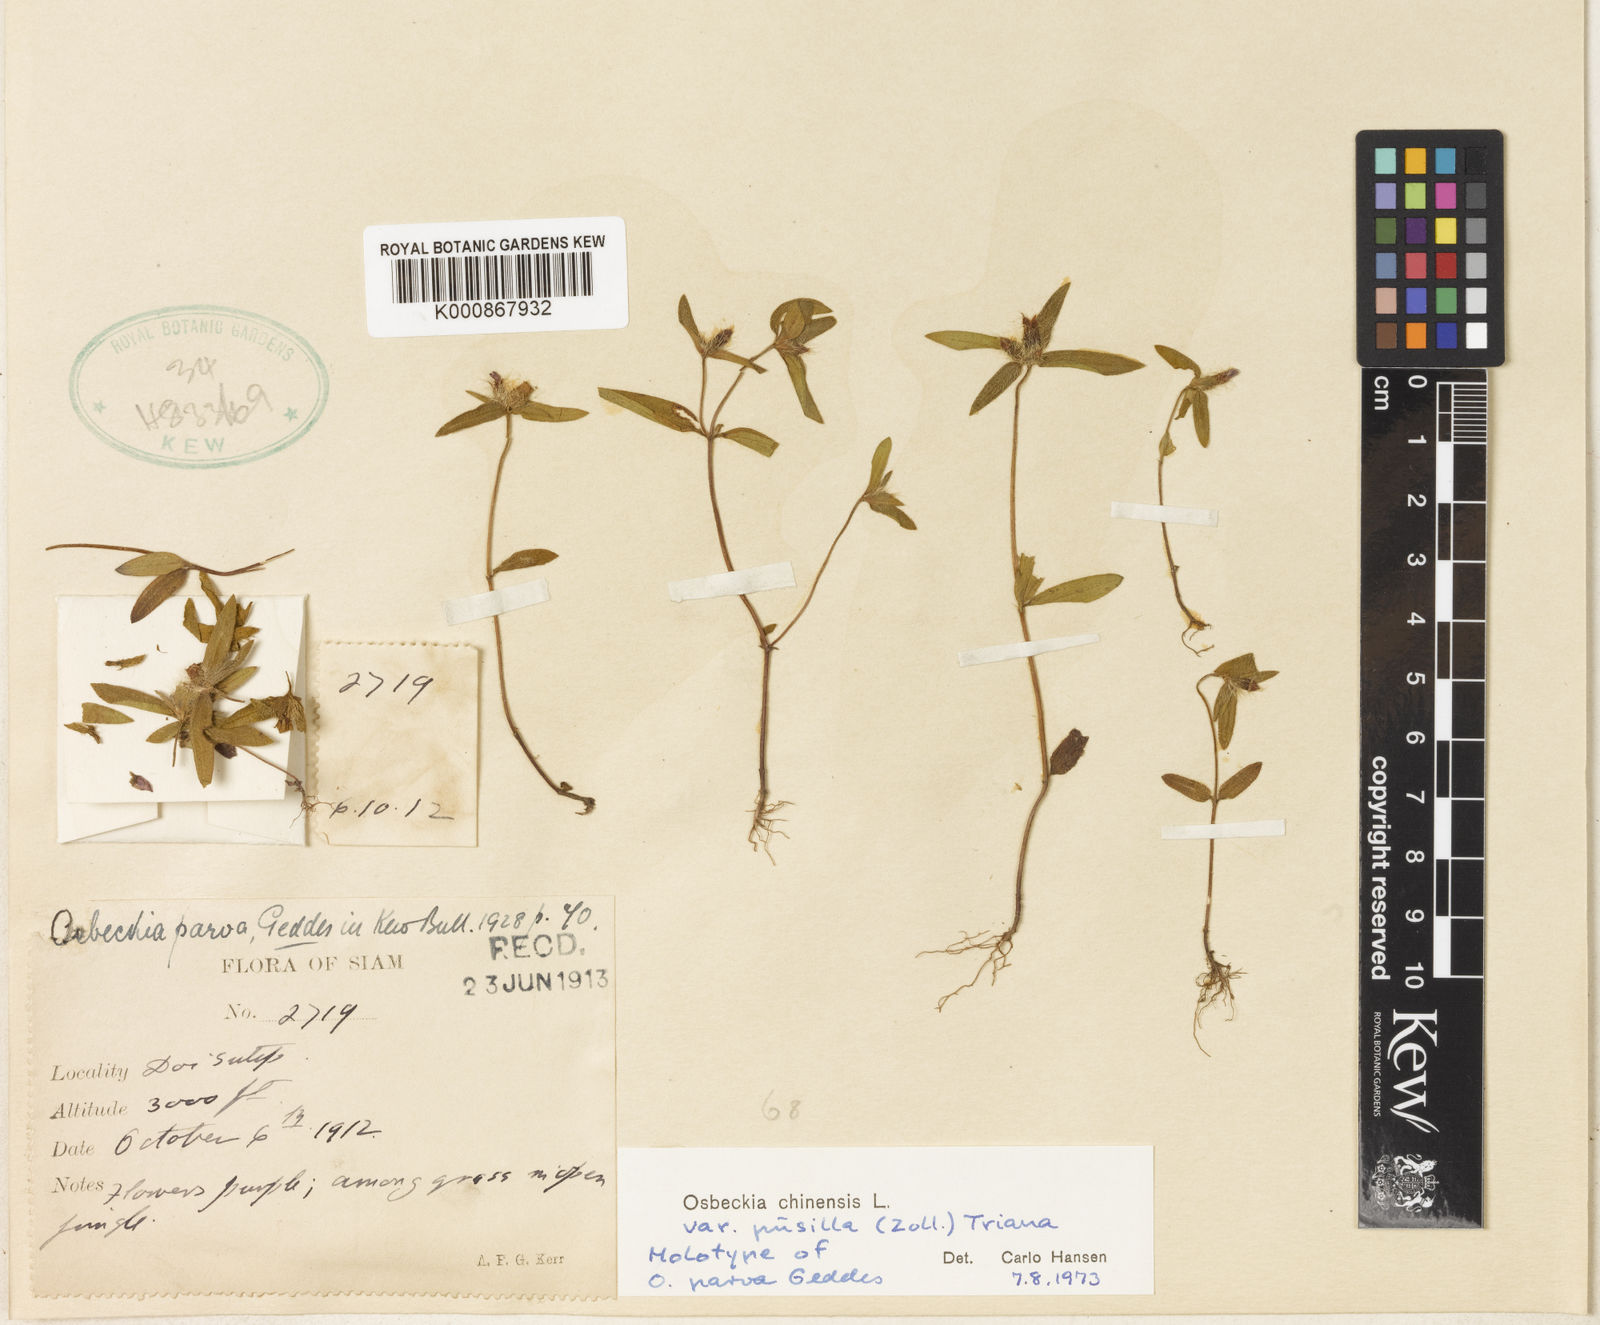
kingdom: Plantae
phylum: Tracheophyta
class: Magnoliopsida
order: Myrtales
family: Melastomataceae
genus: Osbeckia
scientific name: Osbeckia
